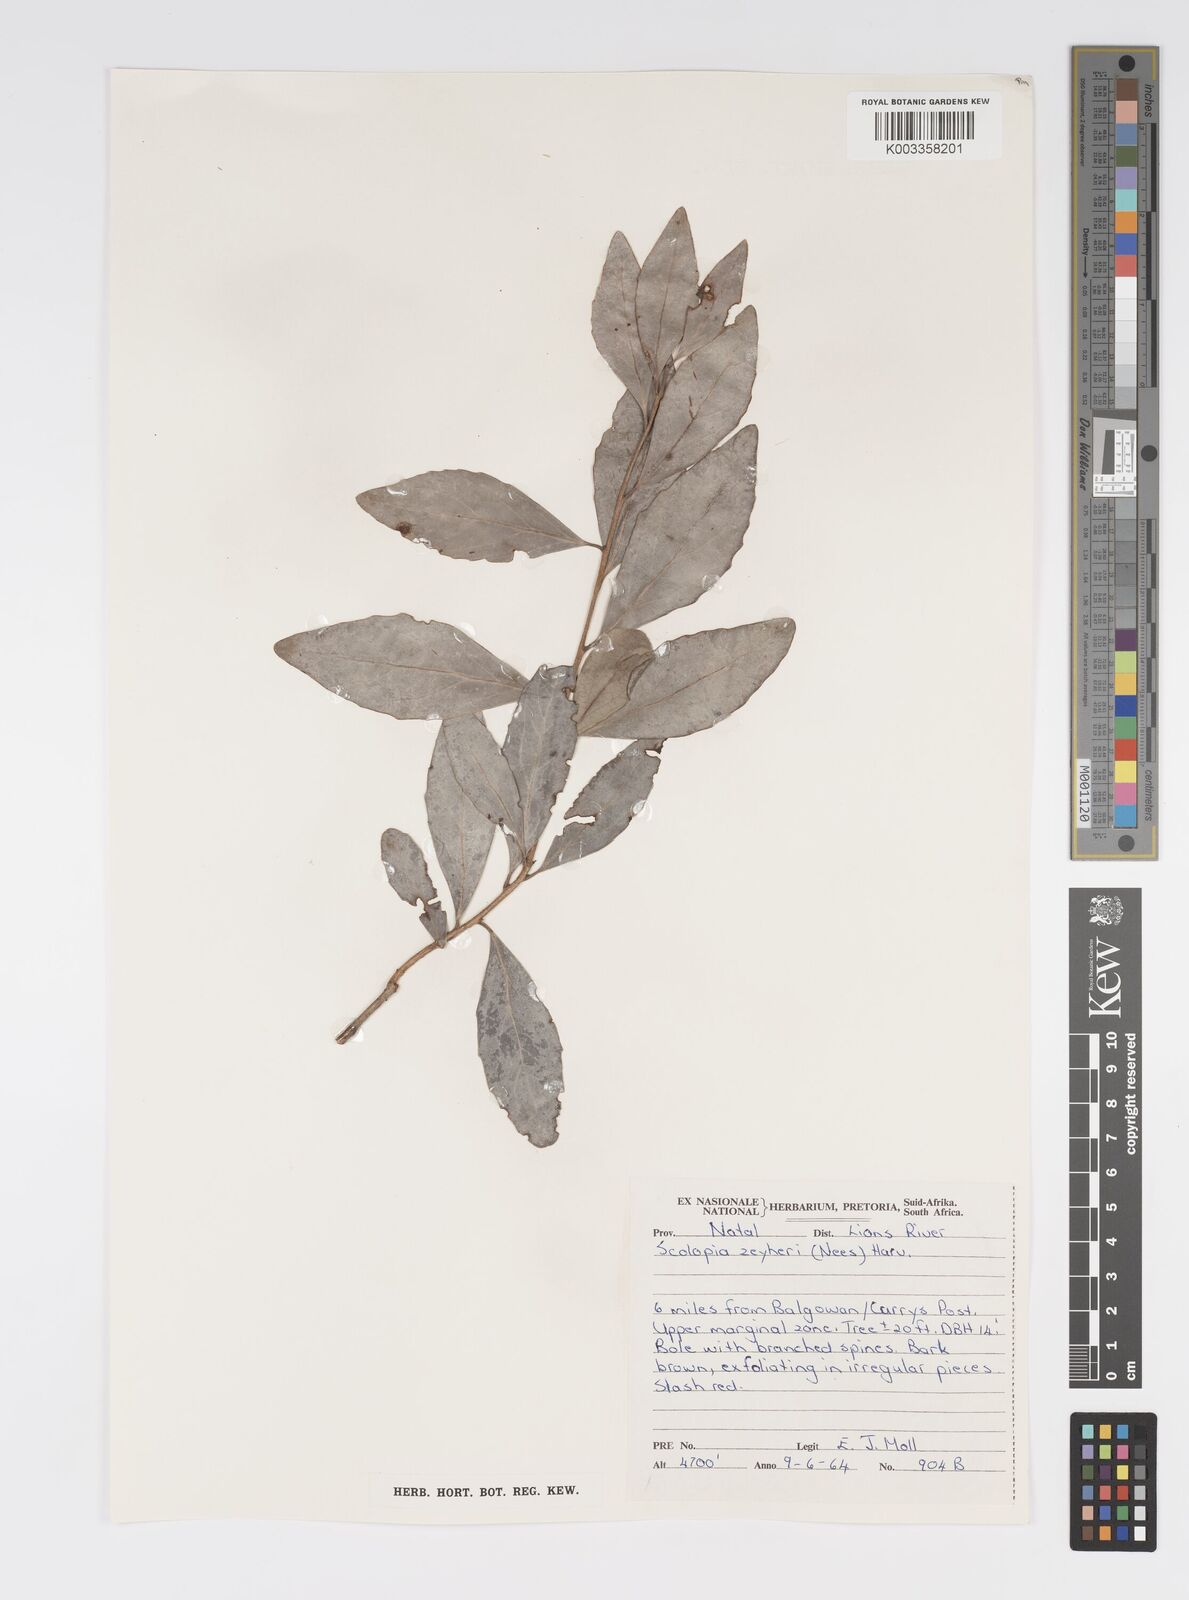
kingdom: Plantae
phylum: Tracheophyta
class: Magnoliopsida
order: Malpighiales
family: Salicaceae
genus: Scolopia
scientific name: Scolopia zeyheri
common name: Thorn pear
